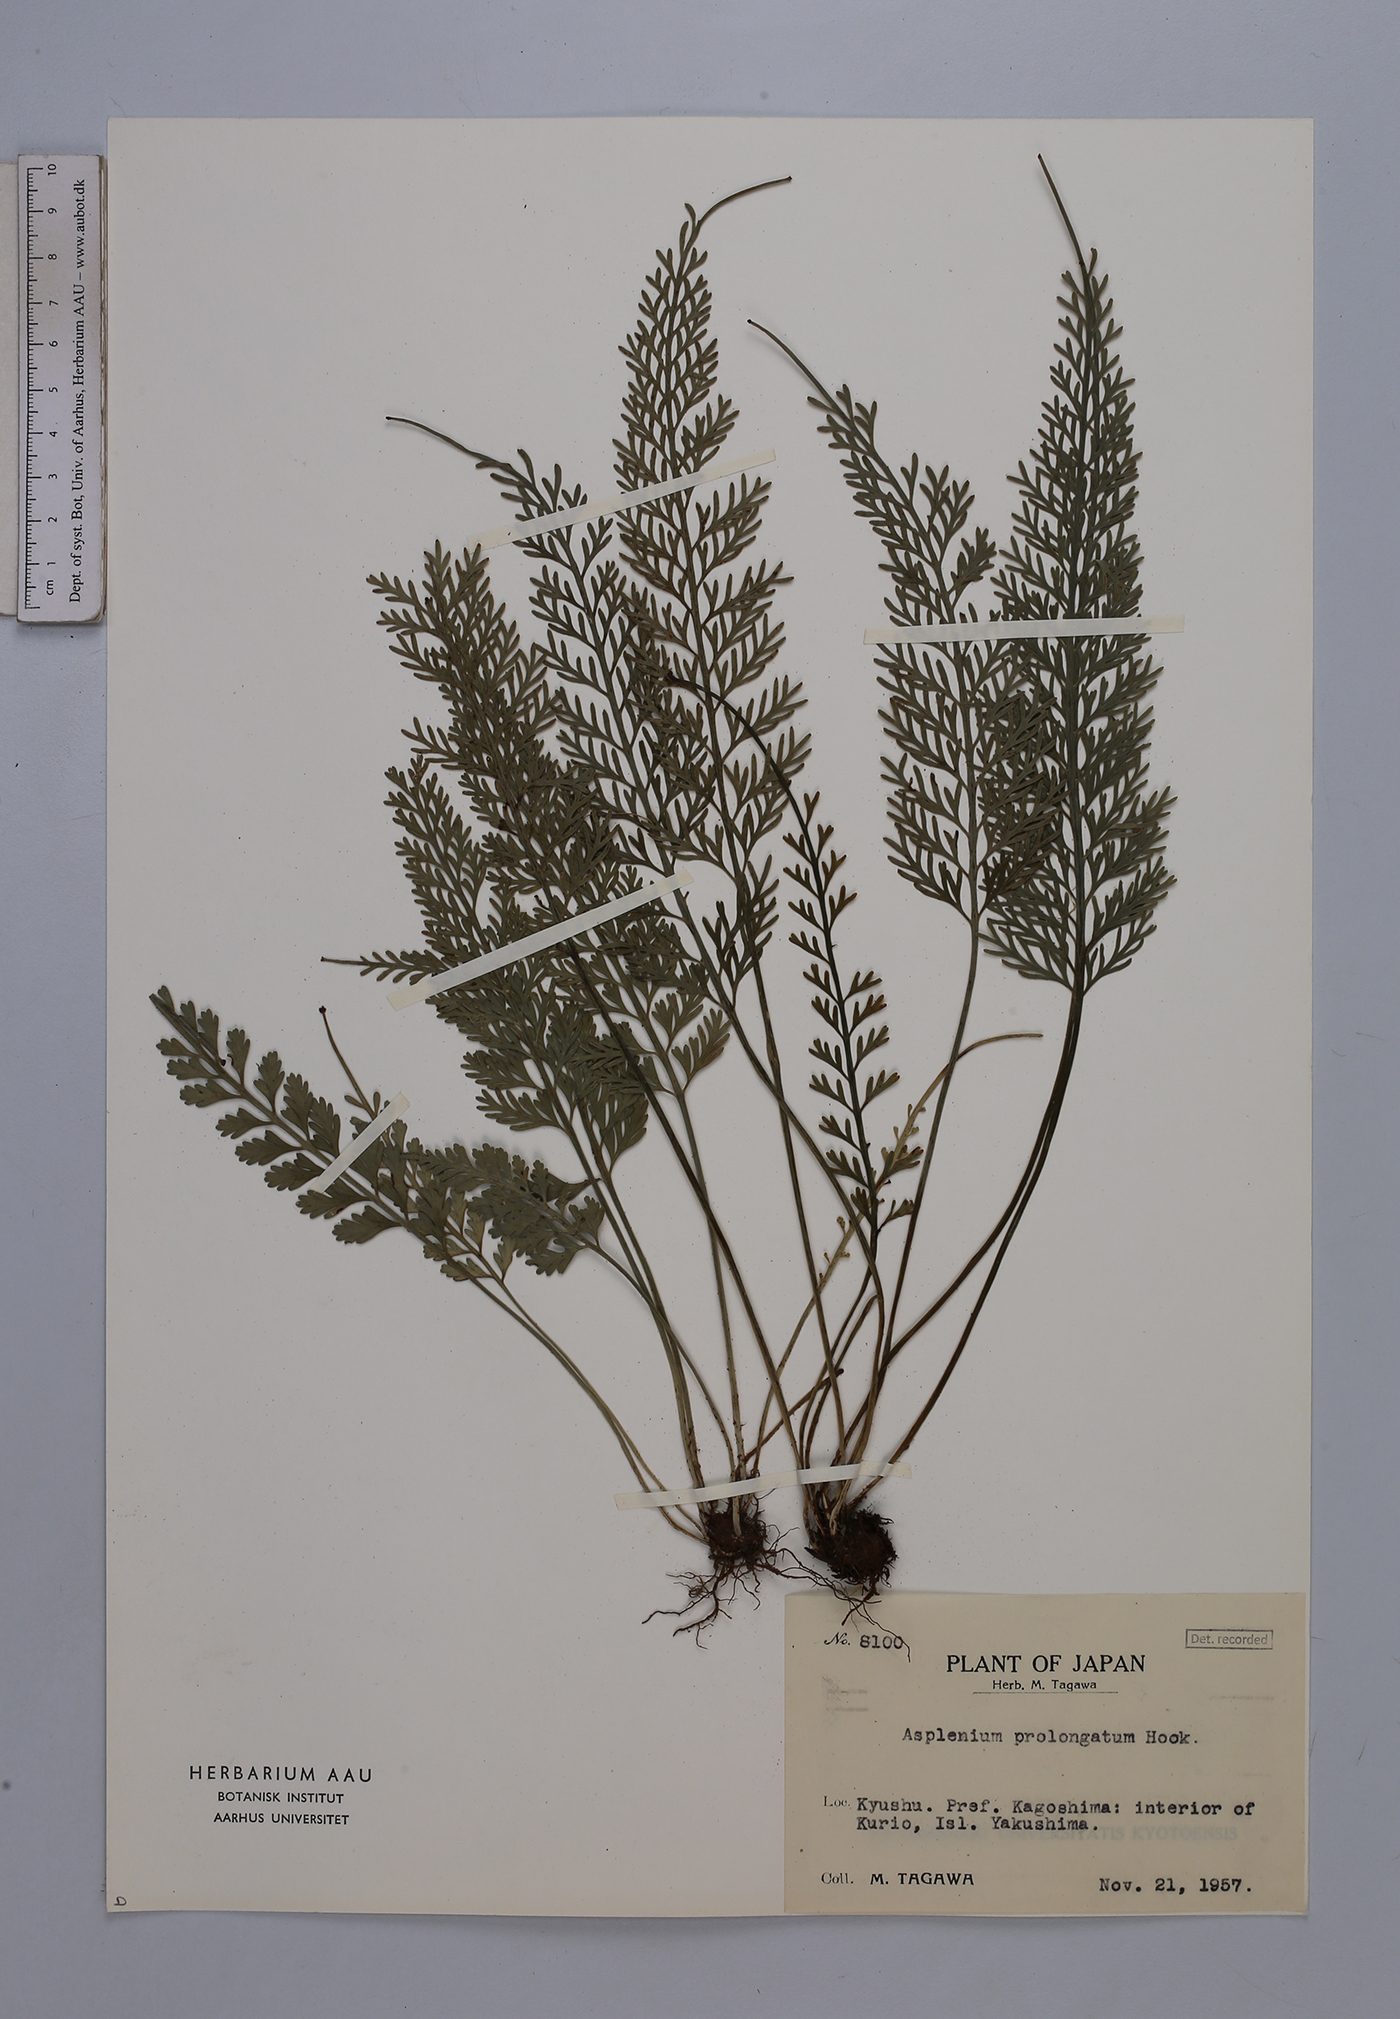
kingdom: Plantae
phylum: Tracheophyta
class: Polypodiopsida
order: Polypodiales
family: Aspleniaceae
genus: Asplenium
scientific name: Asplenium prolongatum
